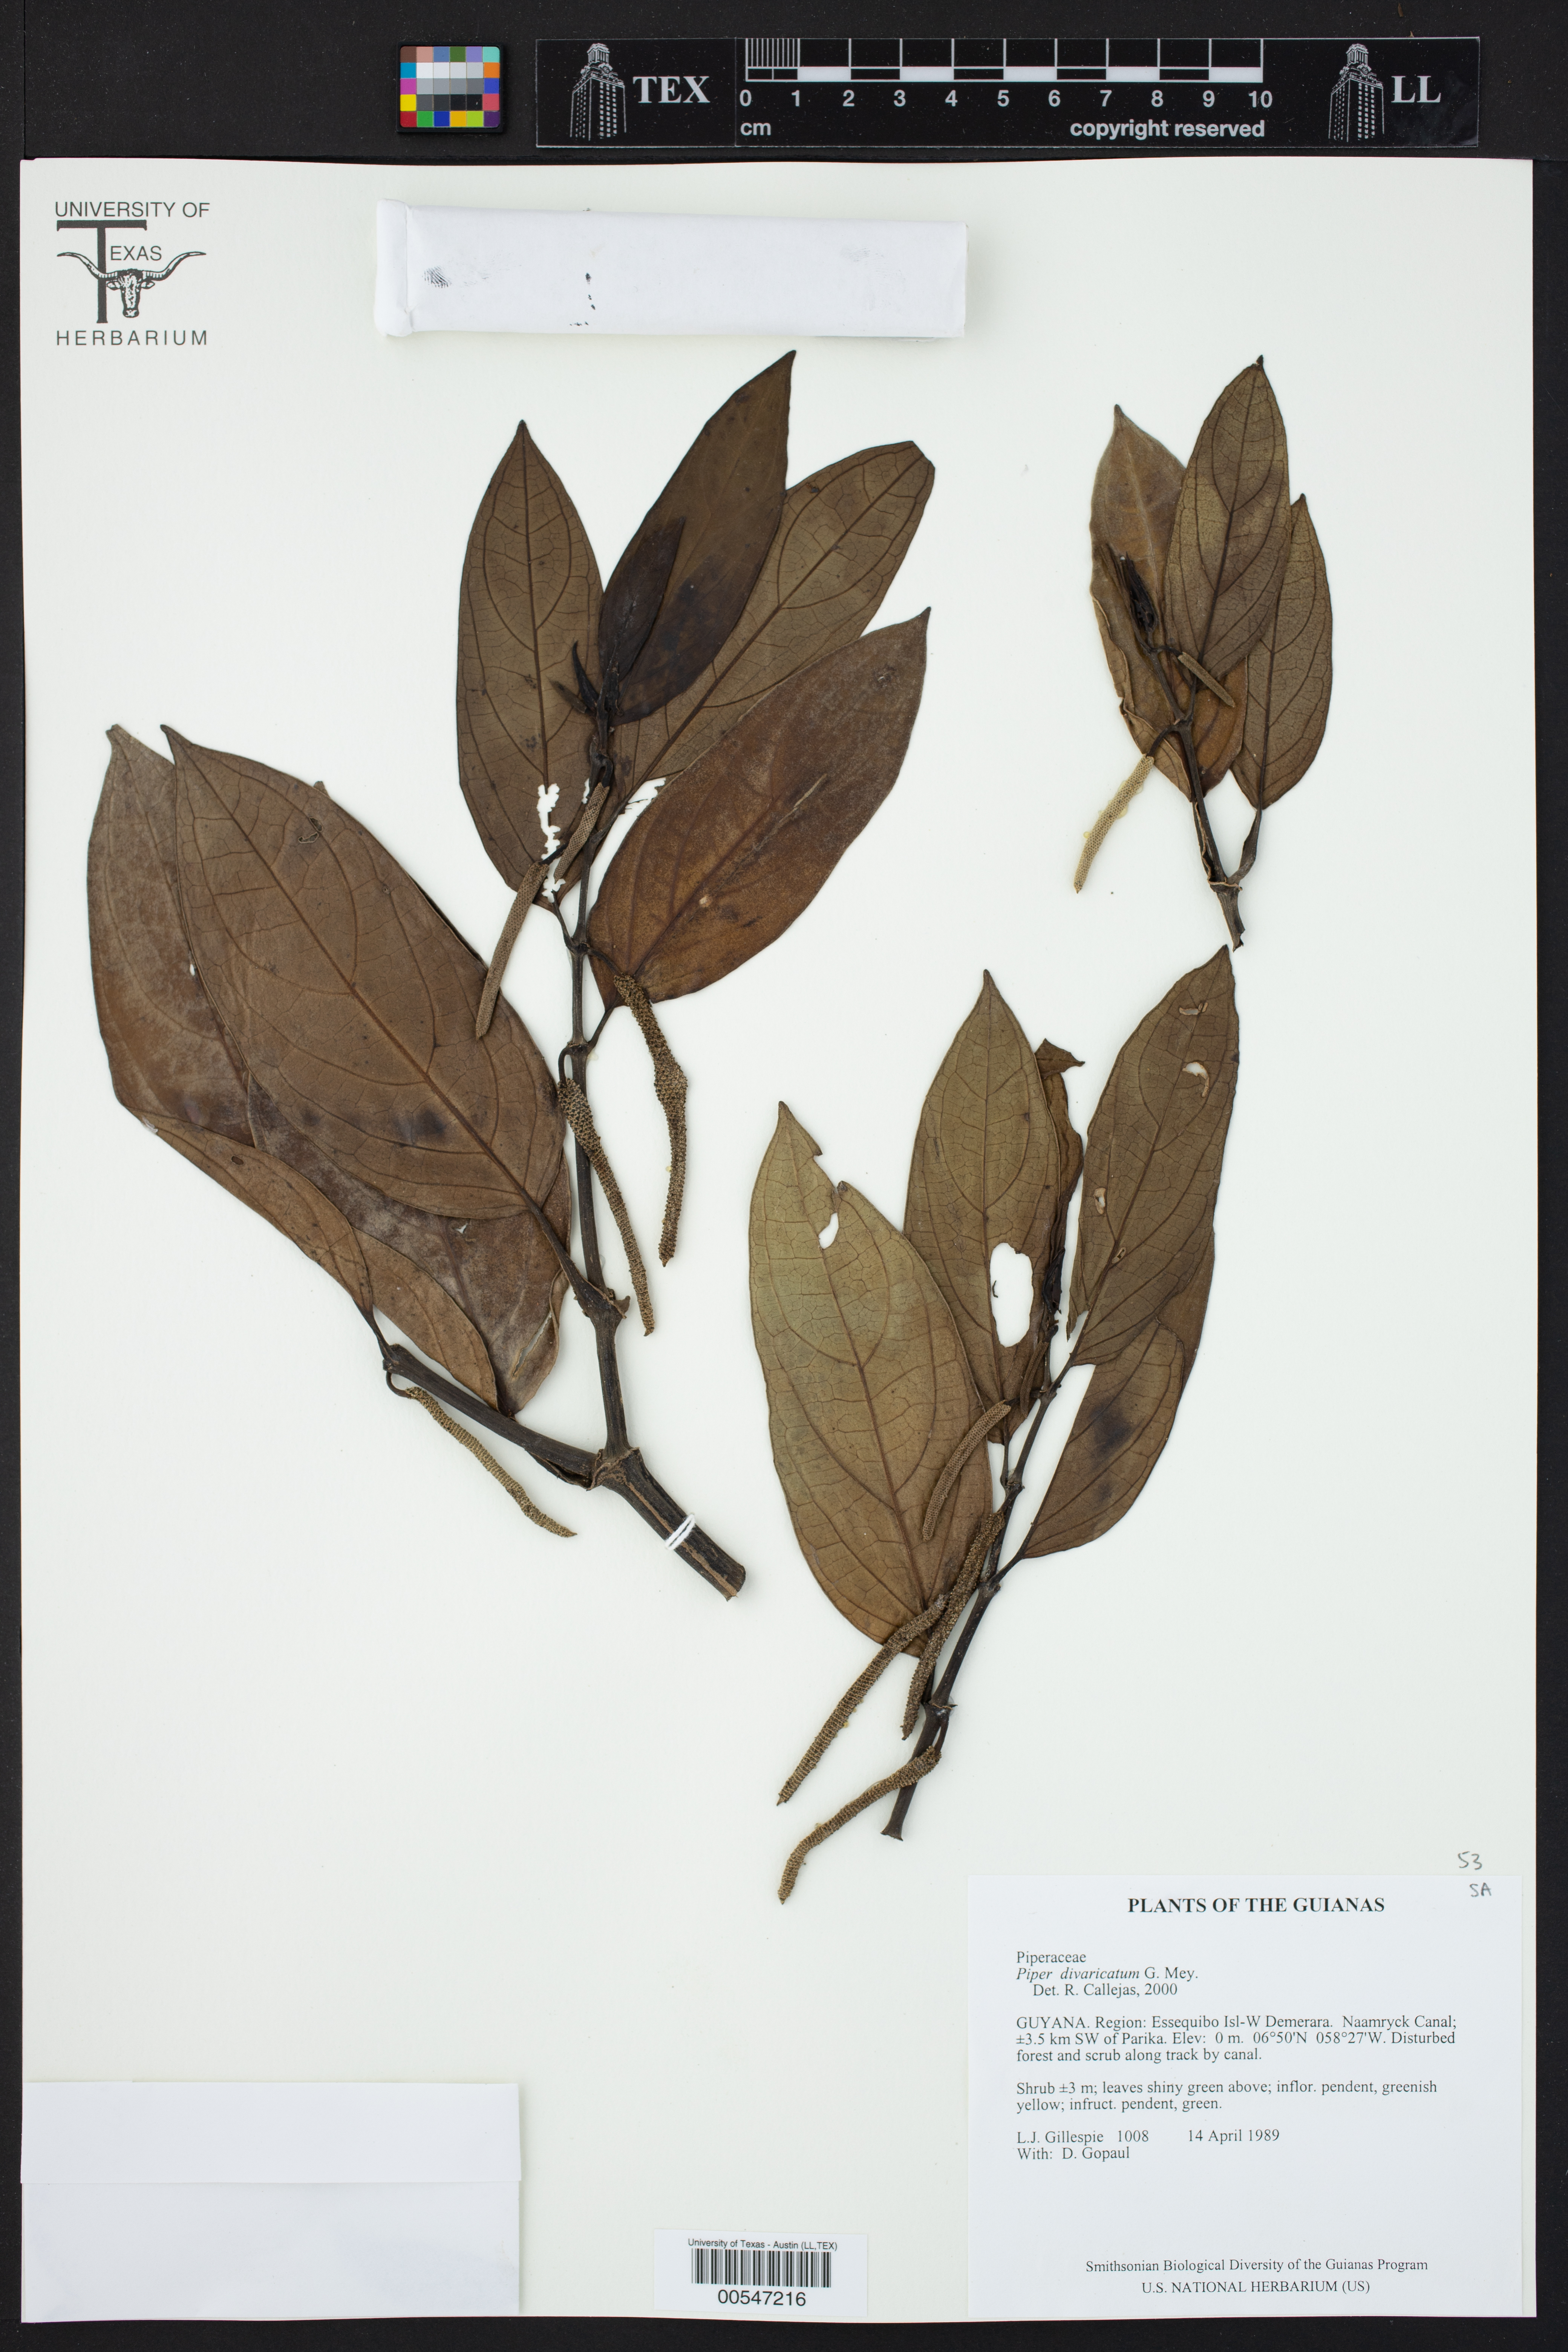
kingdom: Plantae
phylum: Tracheophyta
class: Magnoliopsida
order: Piperales
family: Piperaceae
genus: Piper
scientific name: Piper divaricatum
